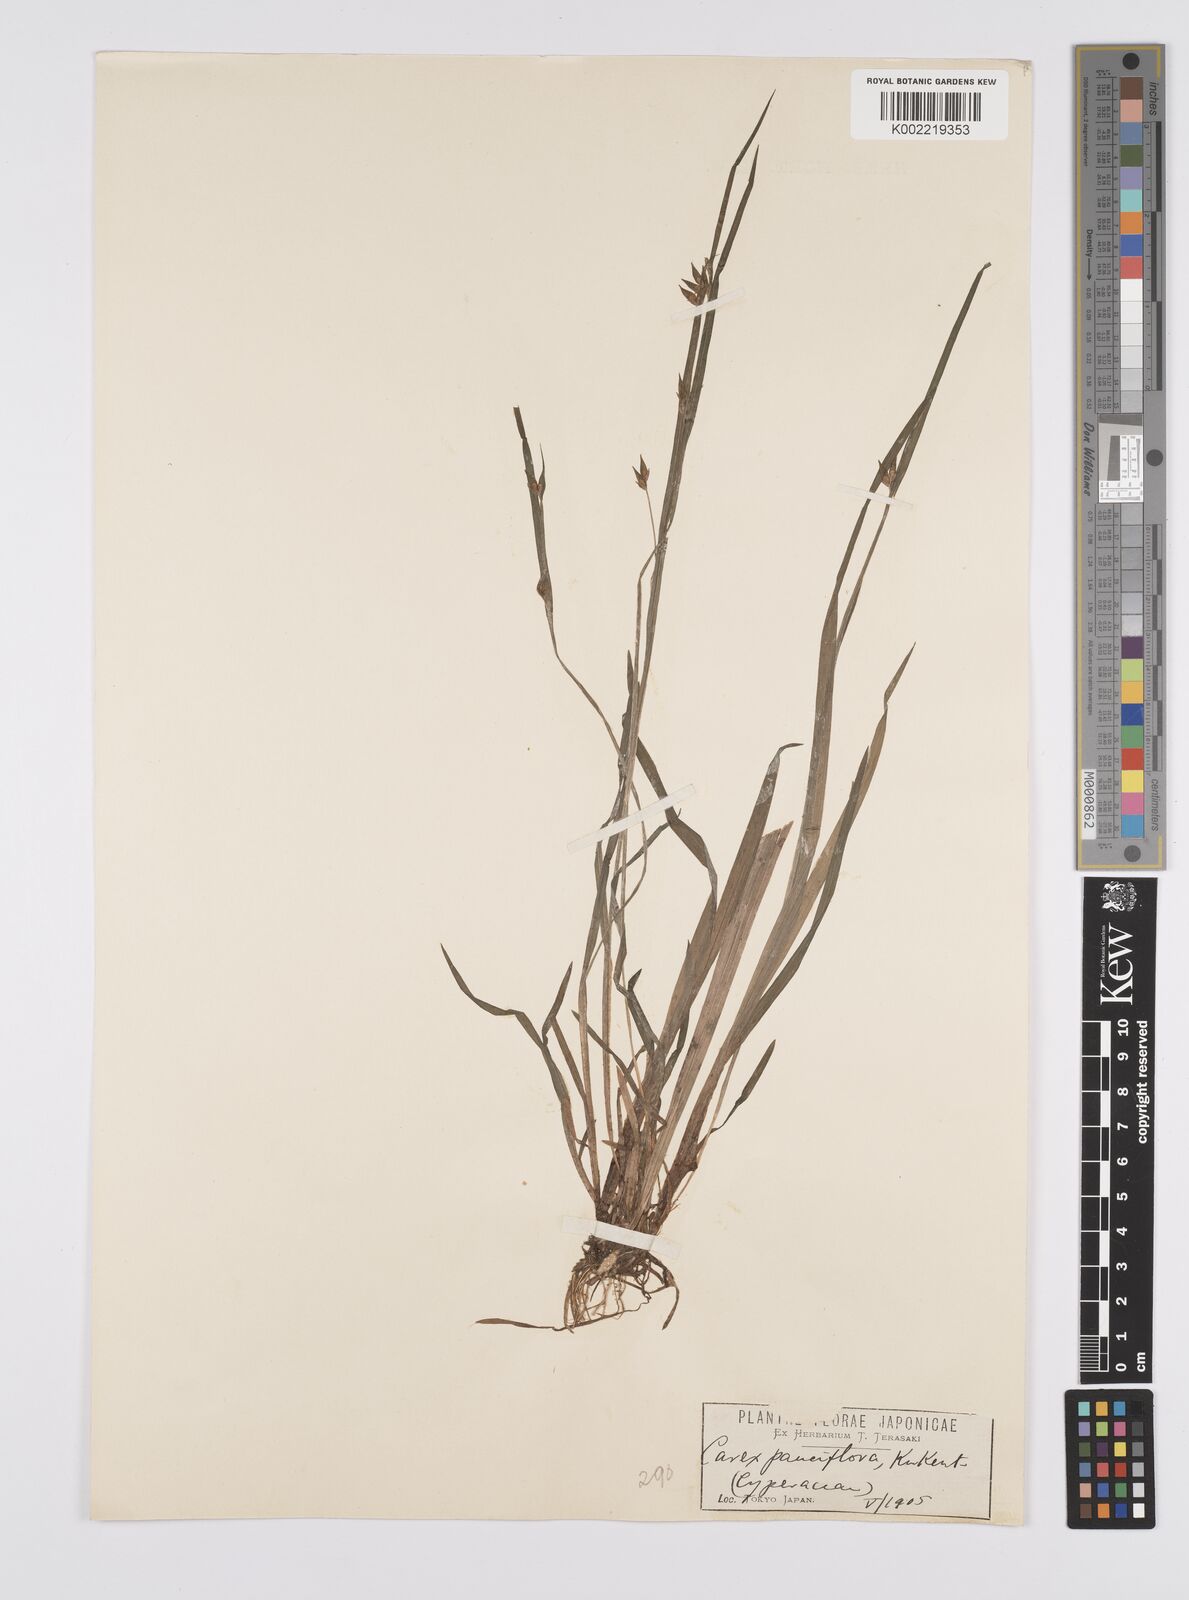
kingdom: Plantae
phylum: Tracheophyta
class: Liliopsida
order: Poales
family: Cyperaceae
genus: Carex
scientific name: Carex pauciflora
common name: Few-flowered sedge
